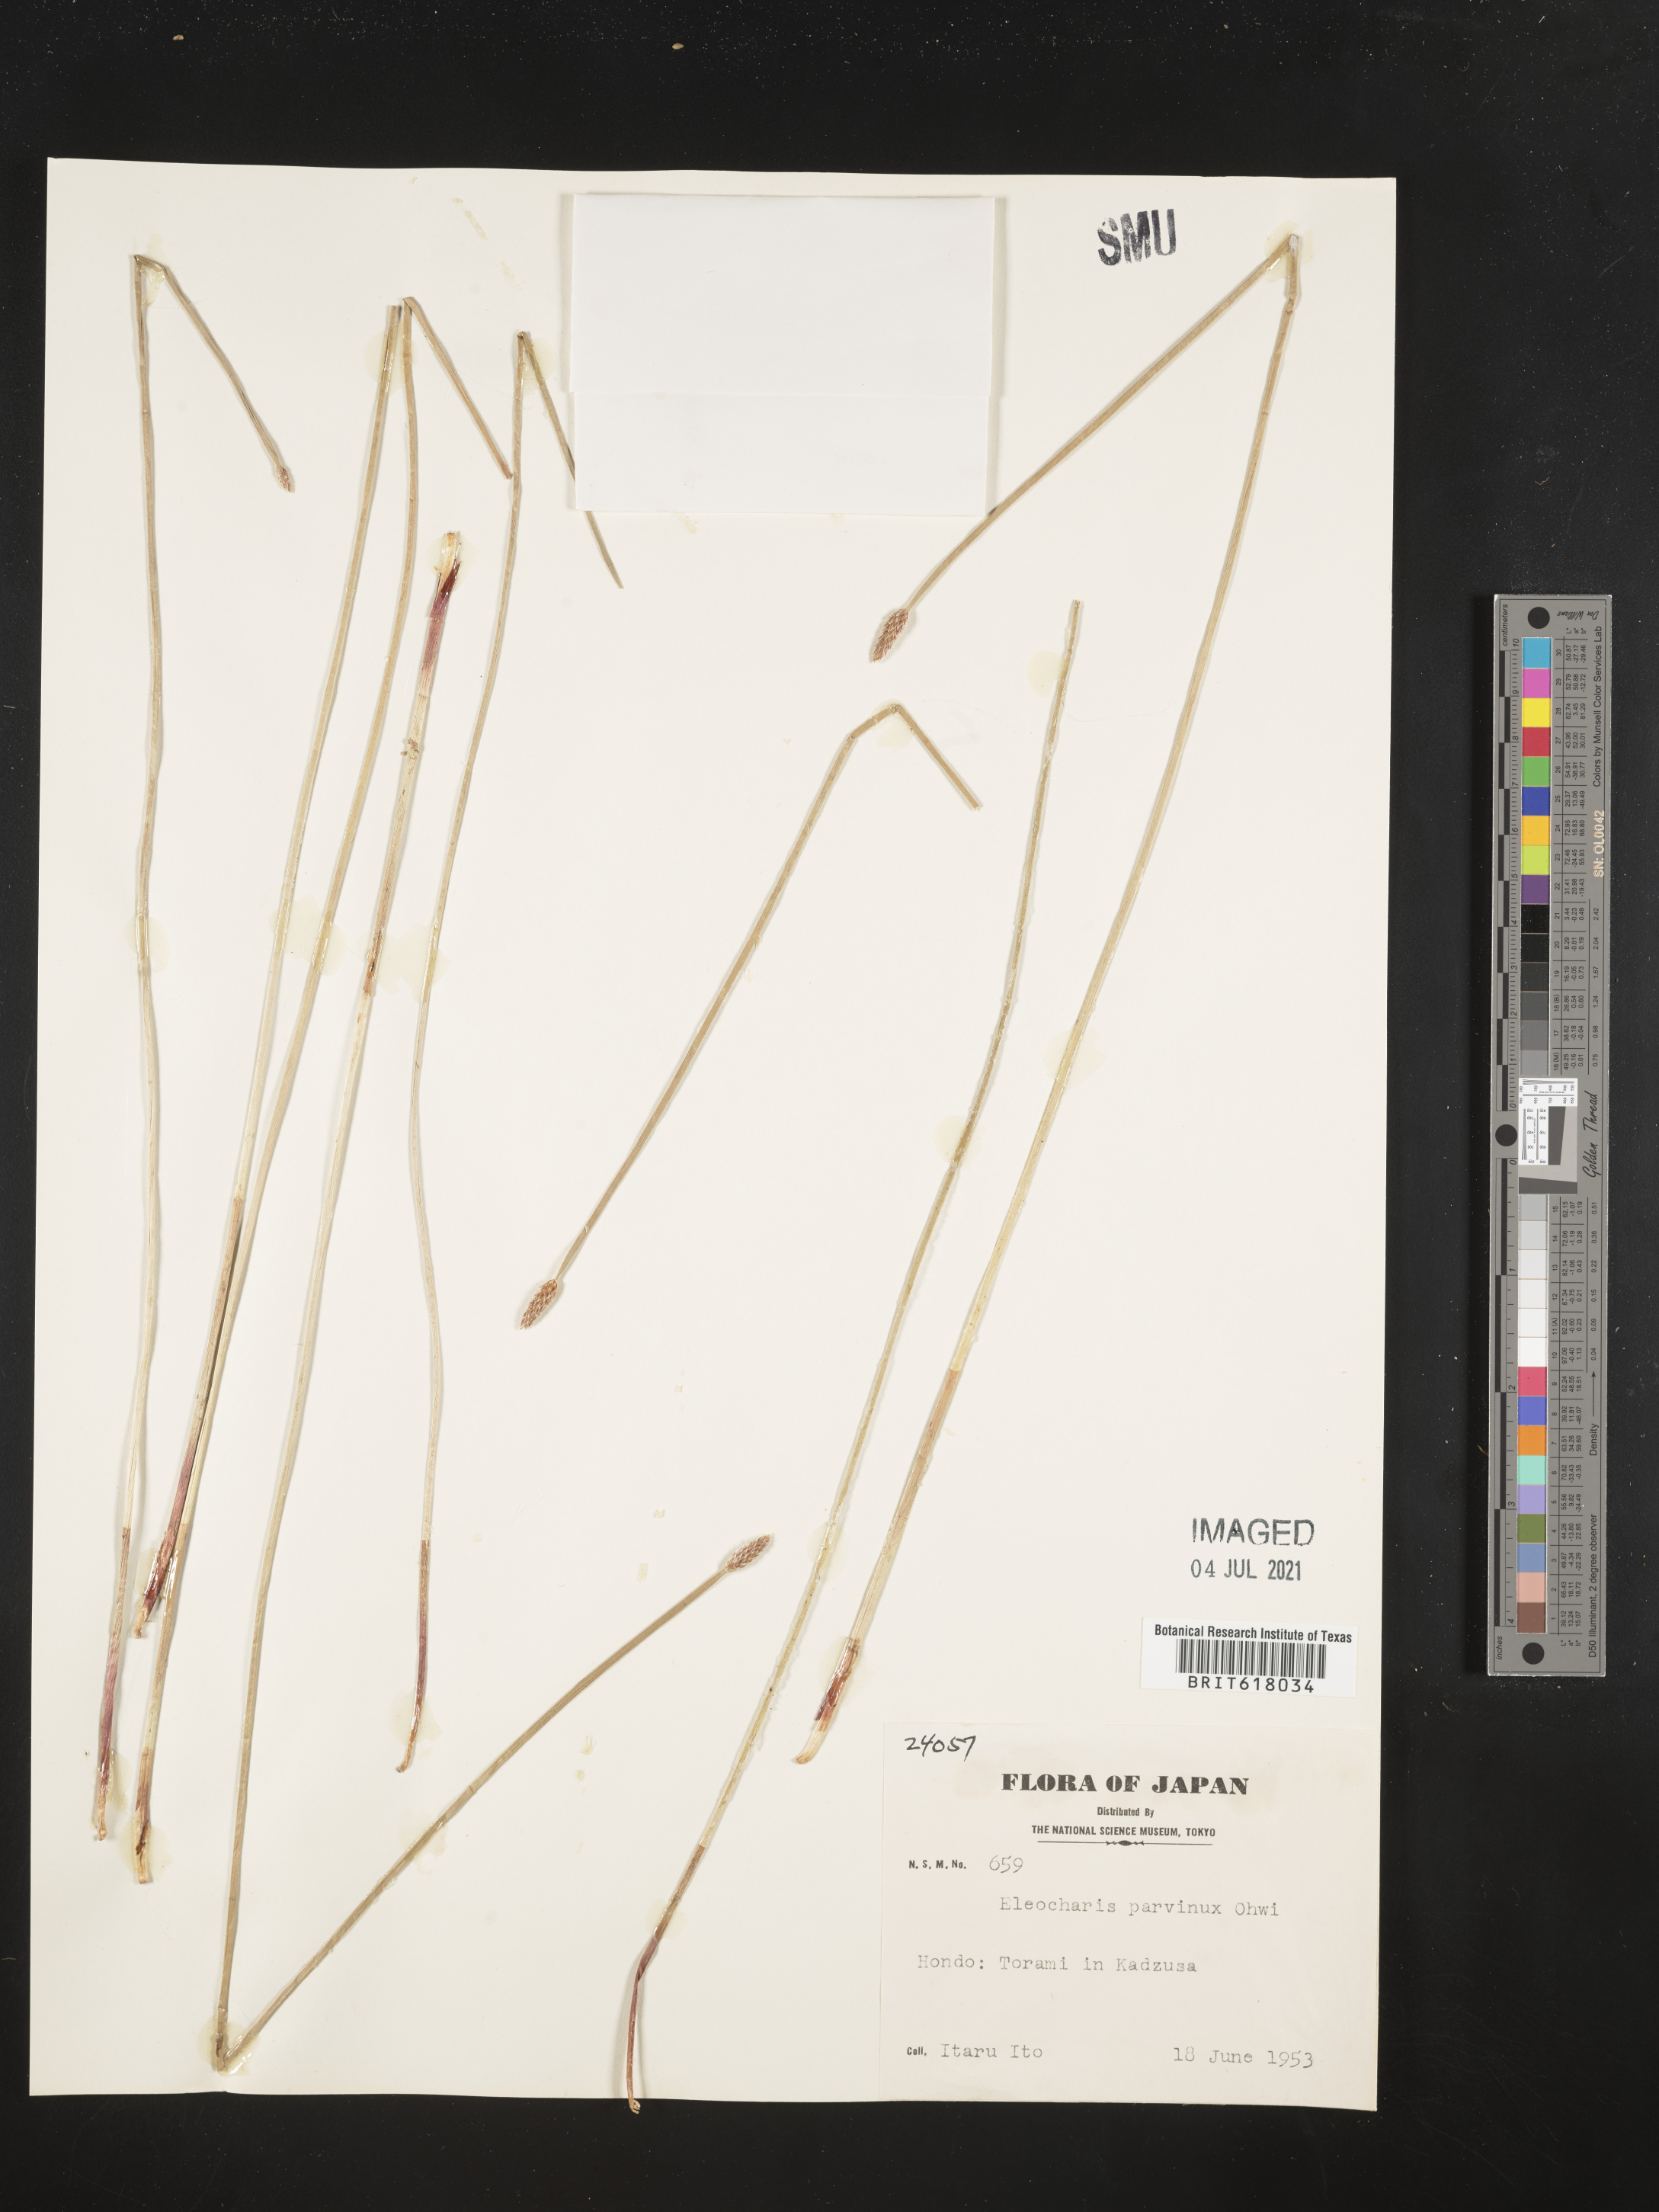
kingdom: Plantae
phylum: Tracheophyta
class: Liliopsida
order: Poales
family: Cyperaceae
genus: Eleocharis
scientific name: Eleocharis parvinux
